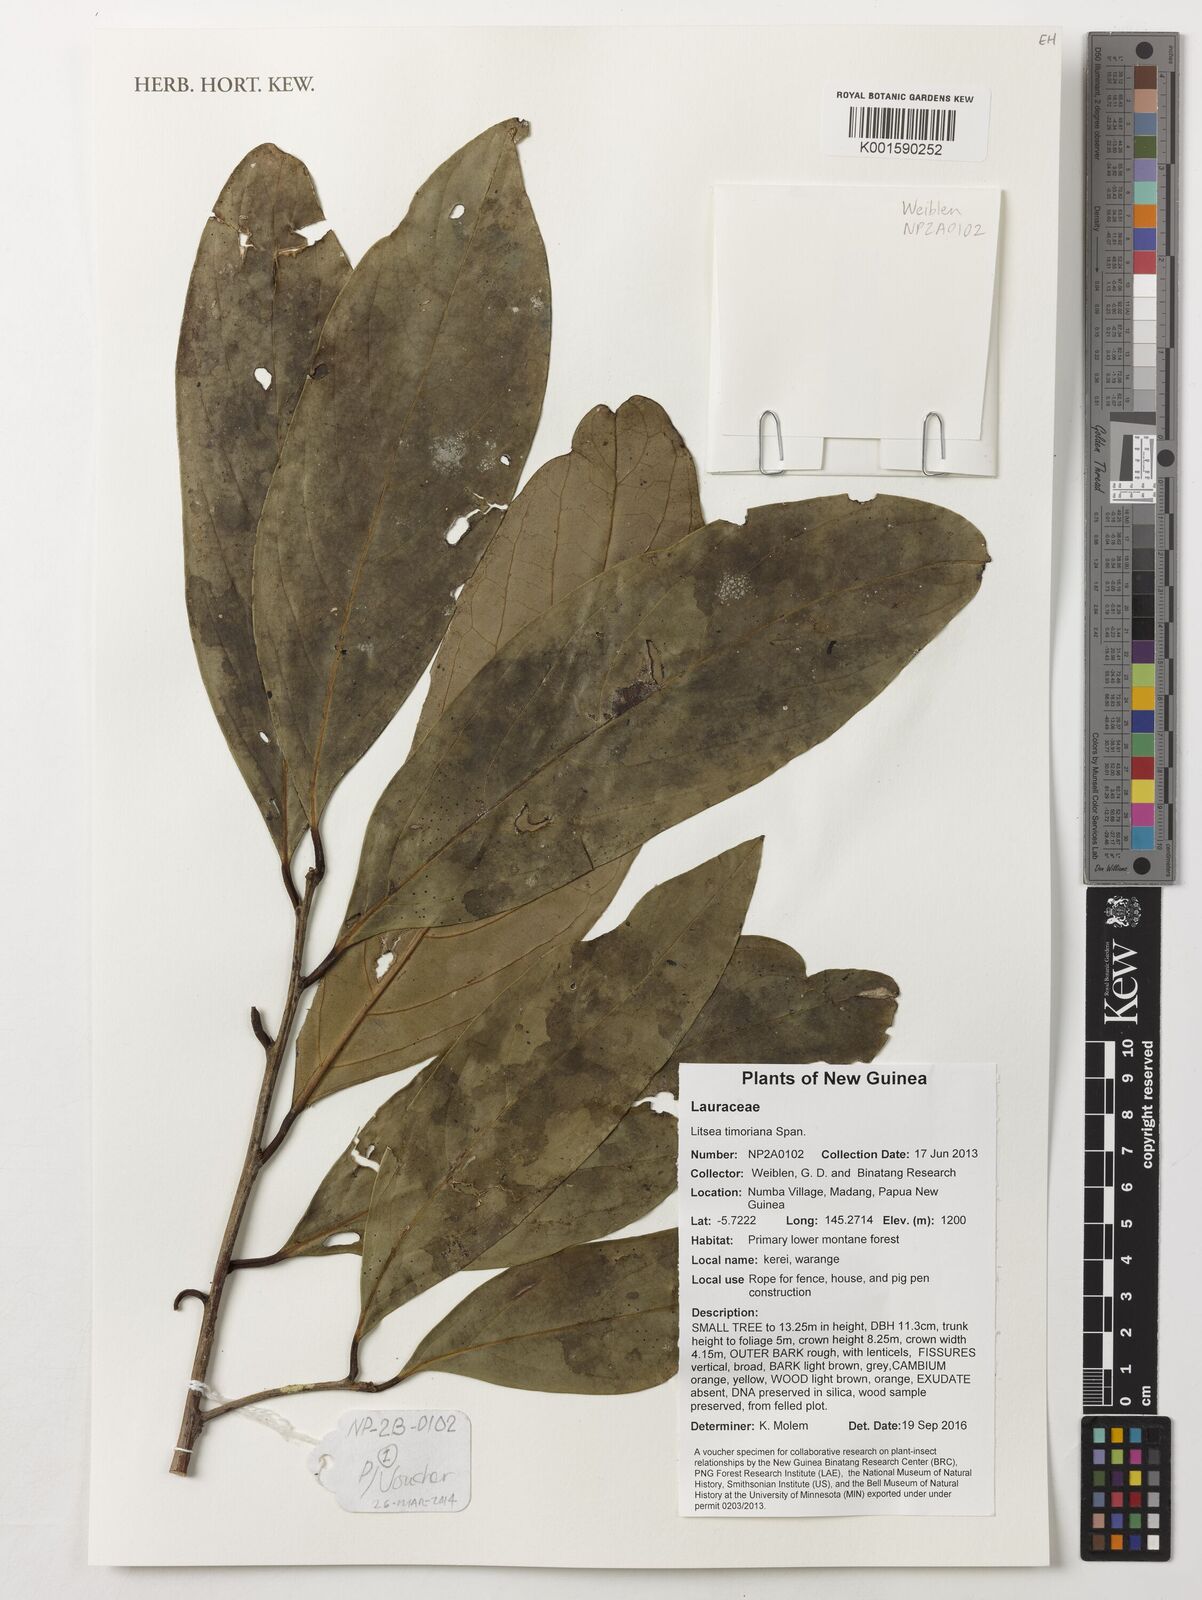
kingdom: Plantae
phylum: Tracheophyta
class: Magnoliopsida
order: Laurales
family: Lauraceae
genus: Litsea
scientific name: Litsea timoriana
